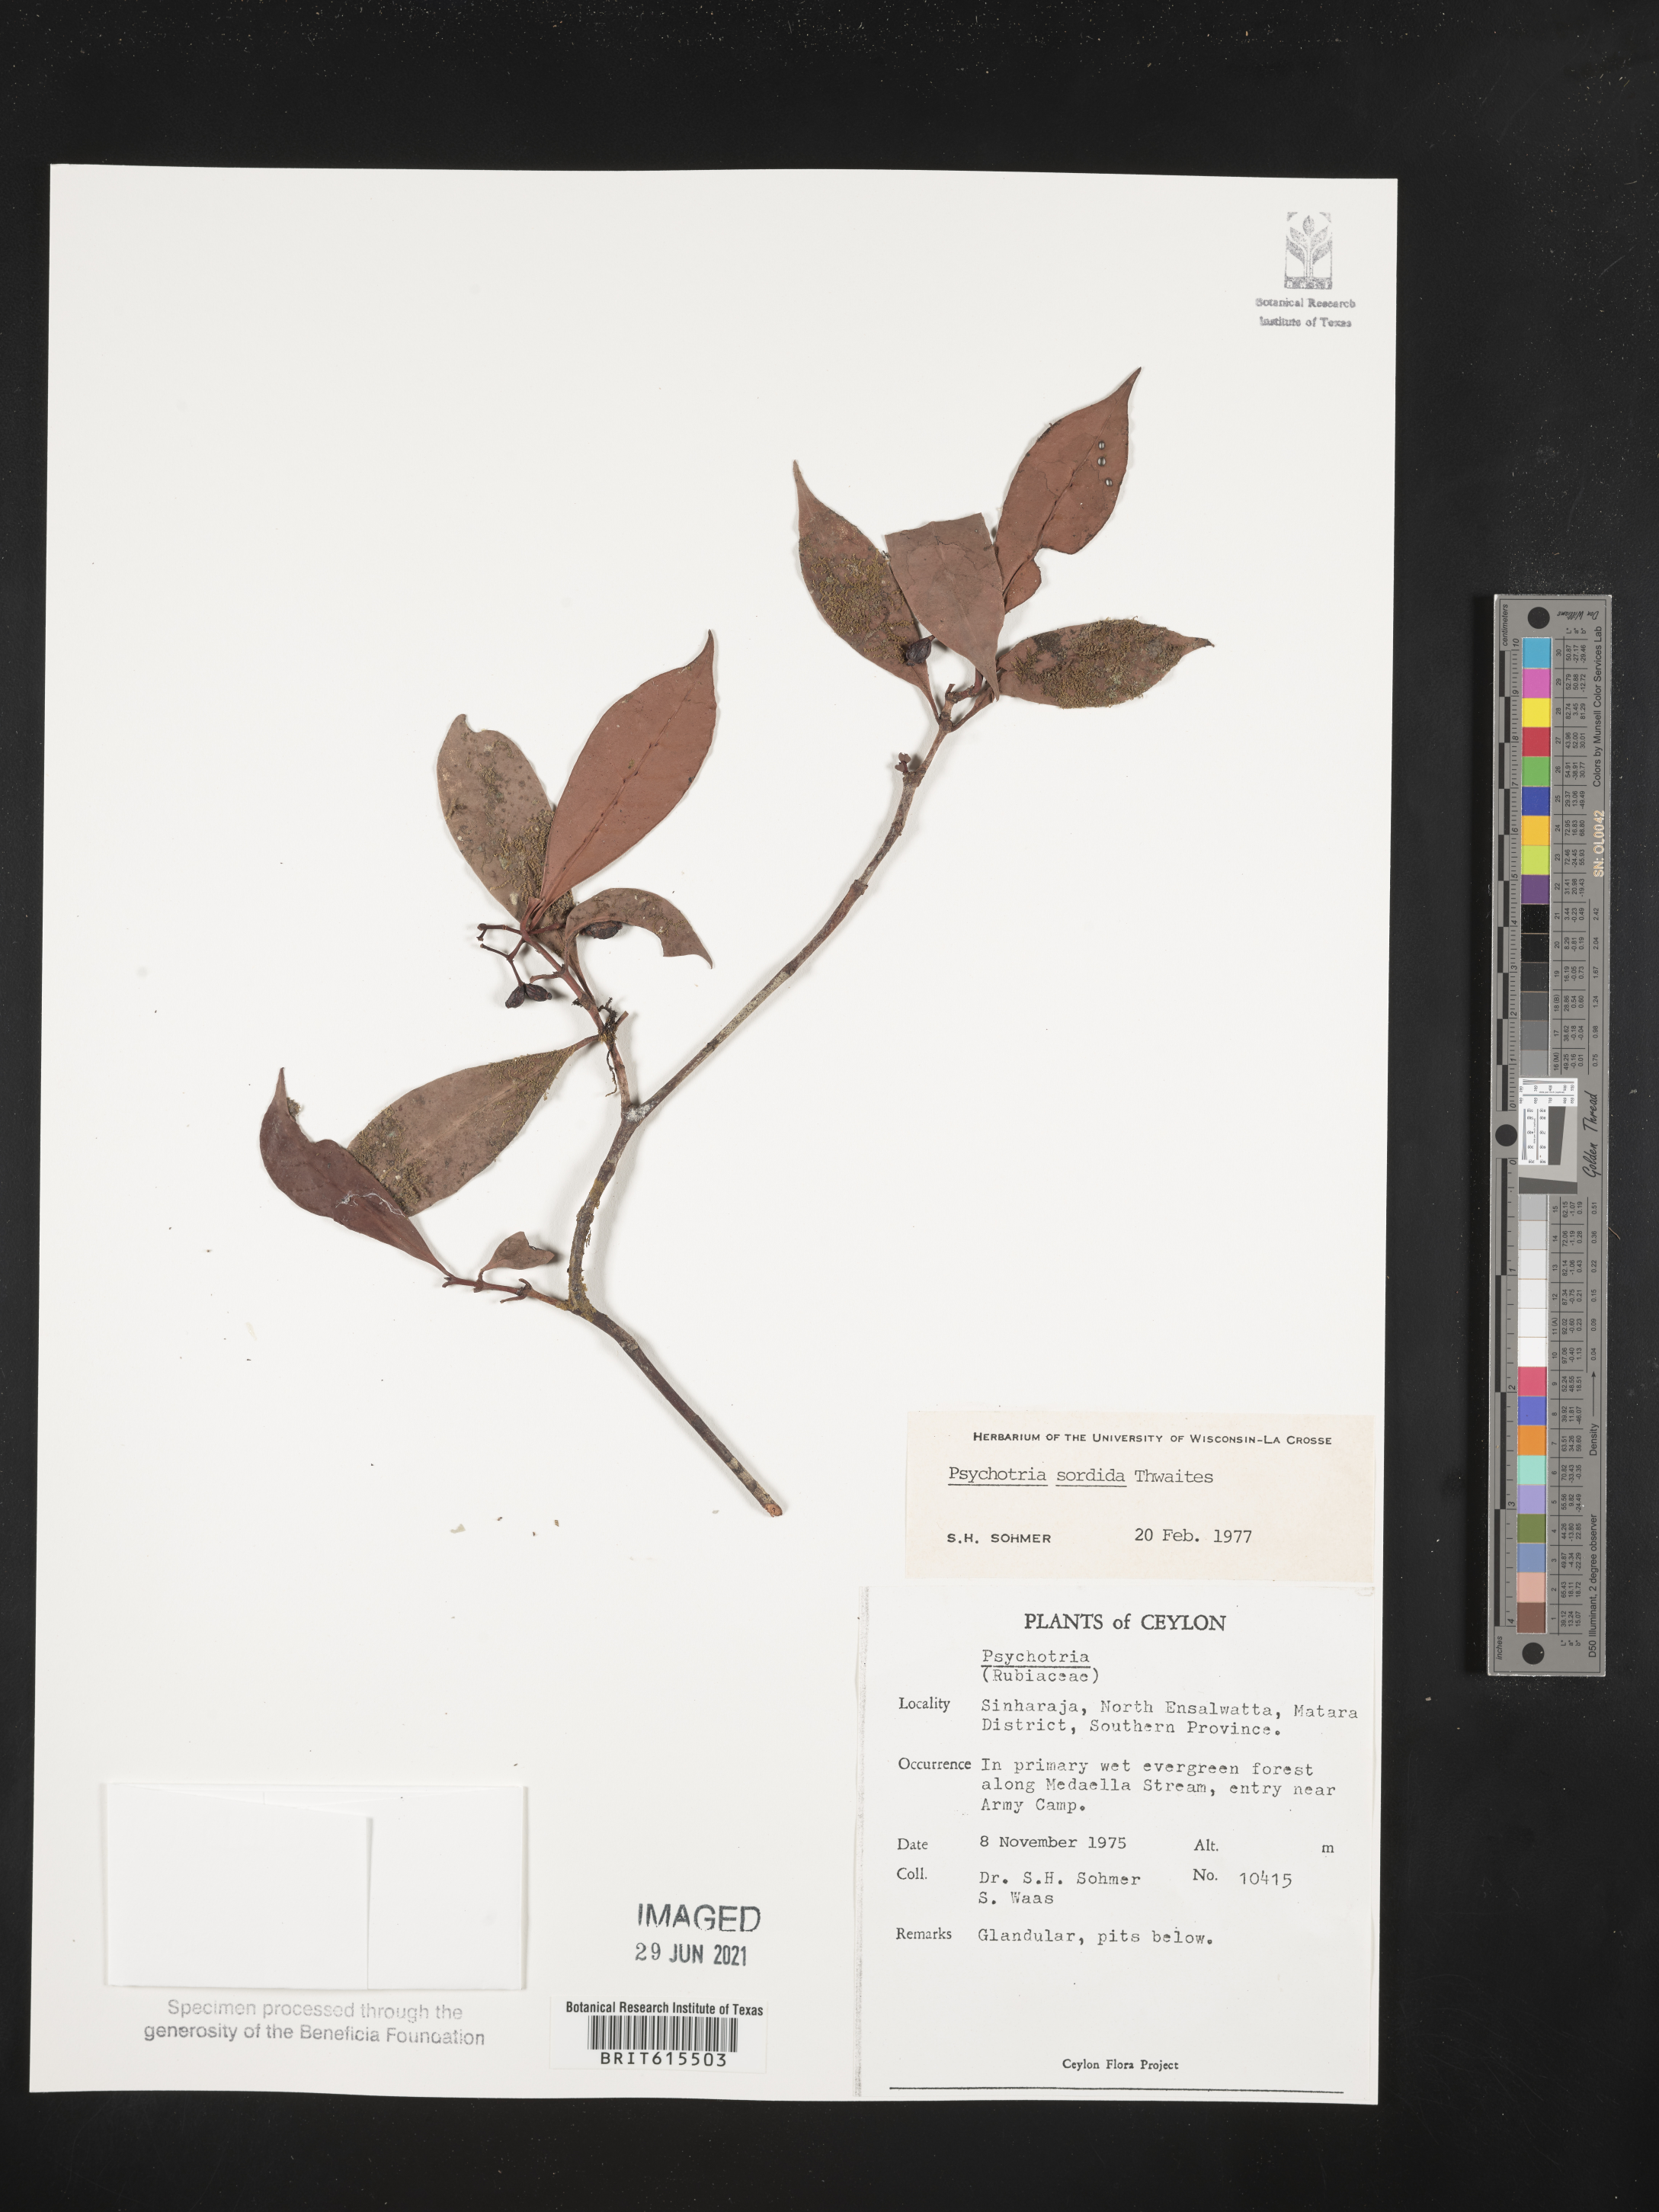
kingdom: Plantae
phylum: Tracheophyta
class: Magnoliopsida
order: Gentianales
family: Rubiaceae
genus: Psychotria
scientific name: Psychotria
